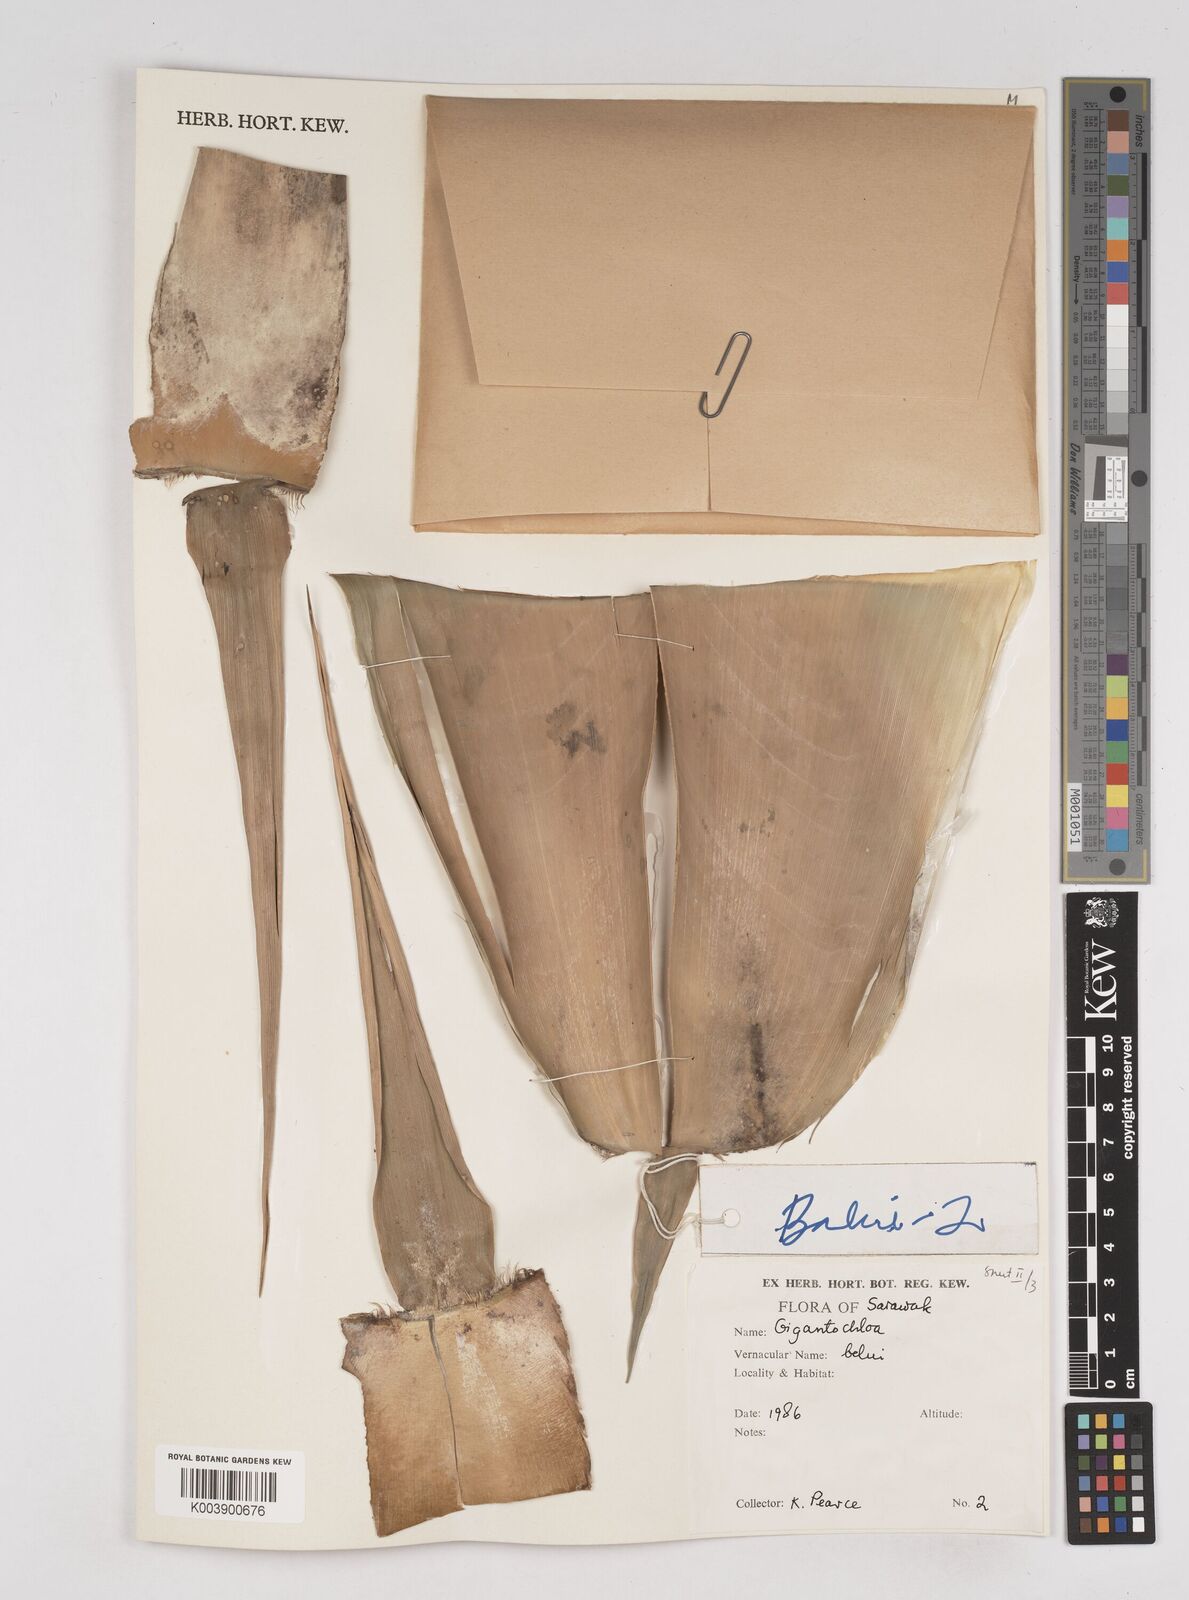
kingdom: Plantae
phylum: Tracheophyta
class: Liliopsida
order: Poales
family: Poaceae
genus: Gigantochloa
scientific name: Gigantochloa
